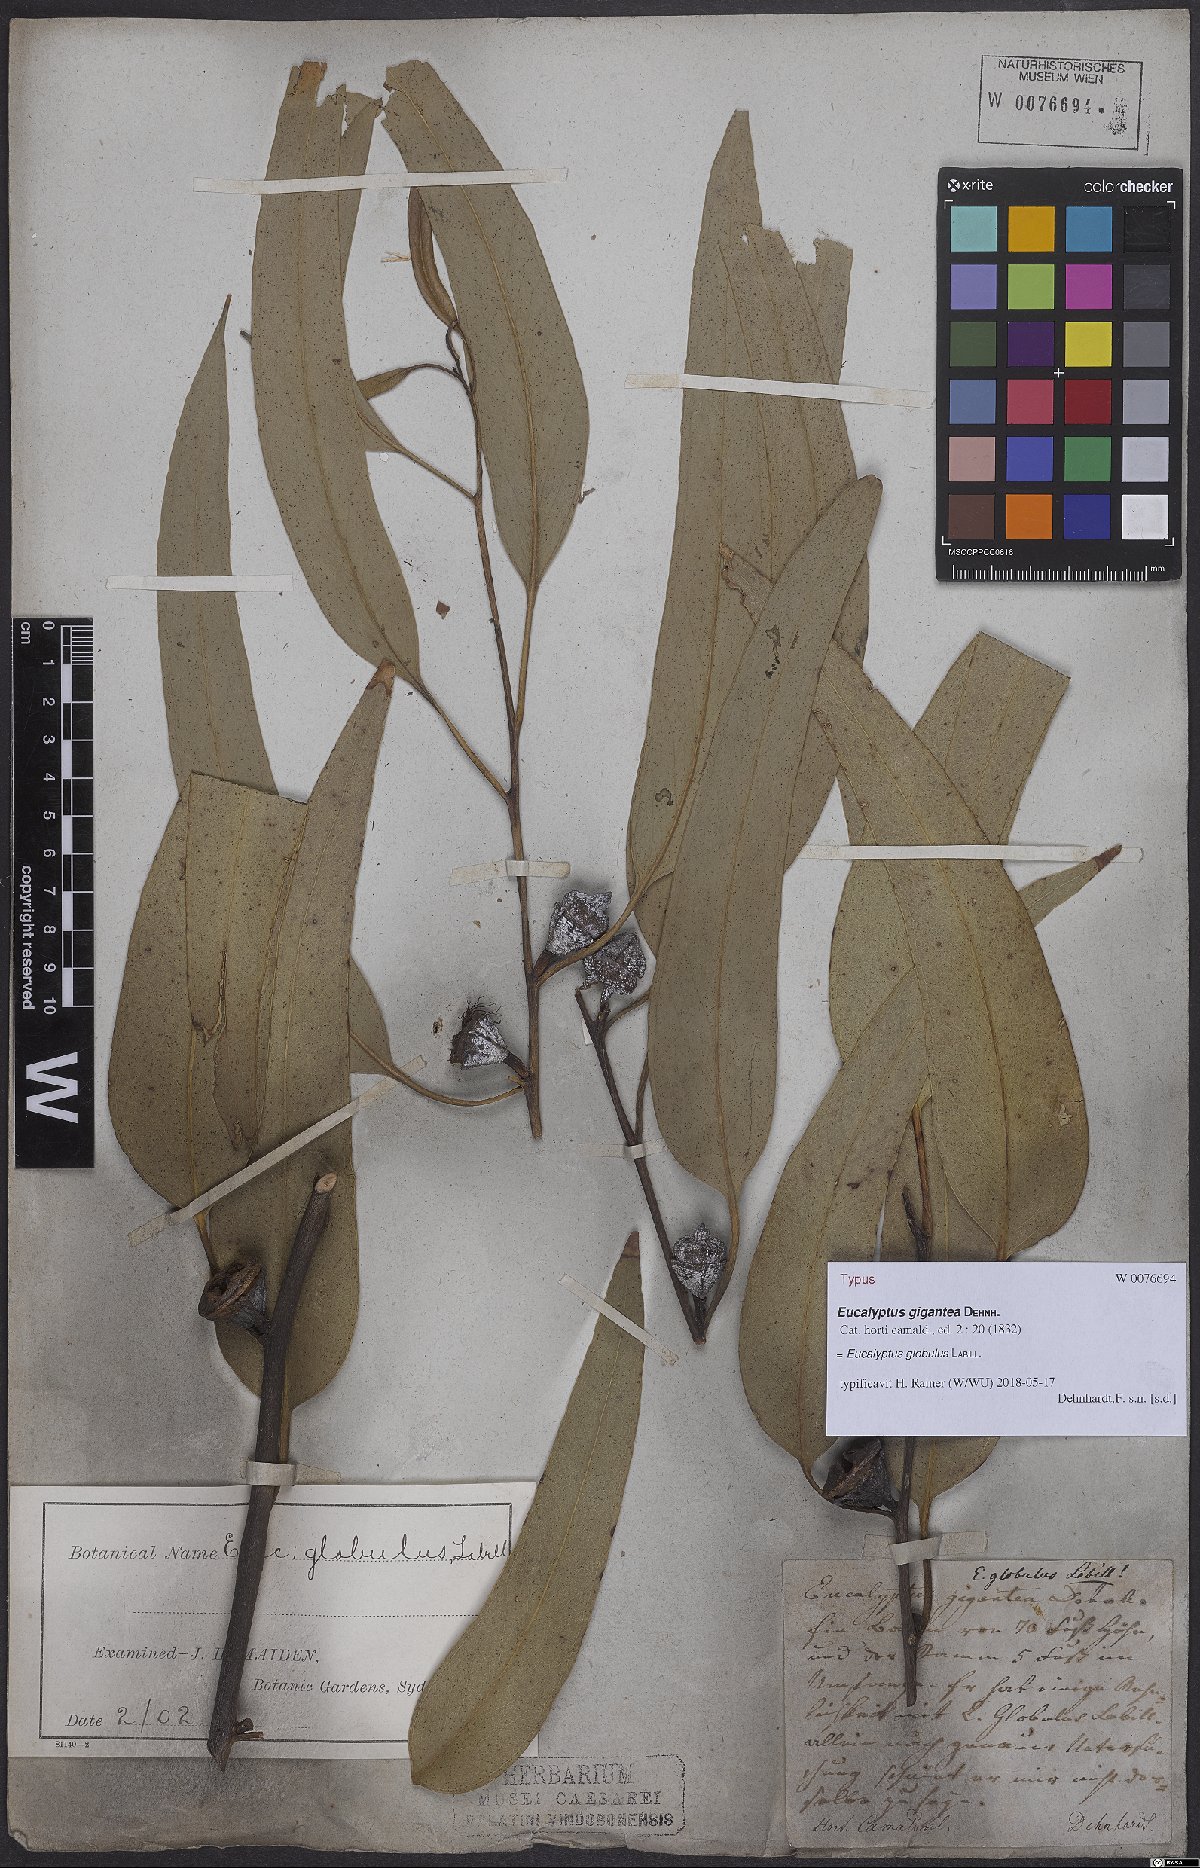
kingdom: Plantae
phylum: Tracheophyta
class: Magnoliopsida
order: Myrtales
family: Myrtaceae
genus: Eucalyptus
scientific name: Eucalyptus globulus
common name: Southern blue-gum
